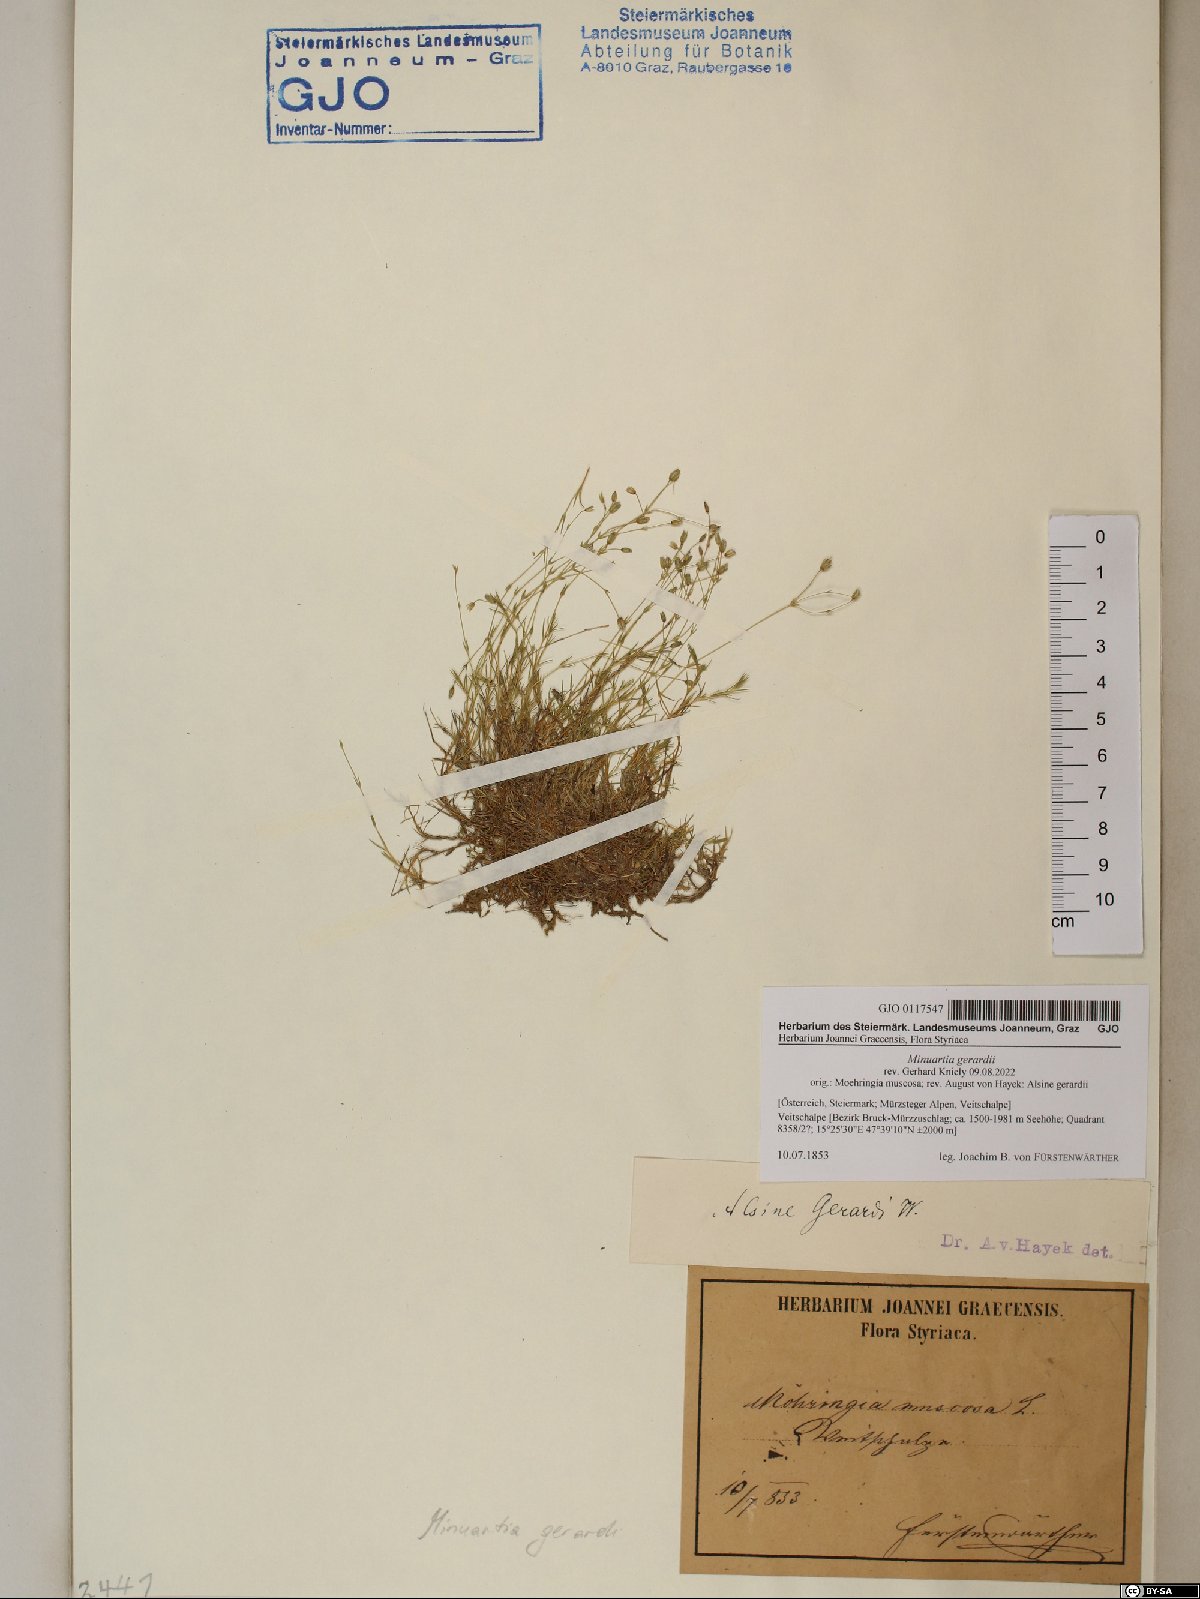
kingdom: Plantae
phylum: Tracheophyta
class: Magnoliopsida
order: Caryophyllales
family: Caryophyllaceae
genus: Sabulina
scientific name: Sabulina verna
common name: Spring sandwort
